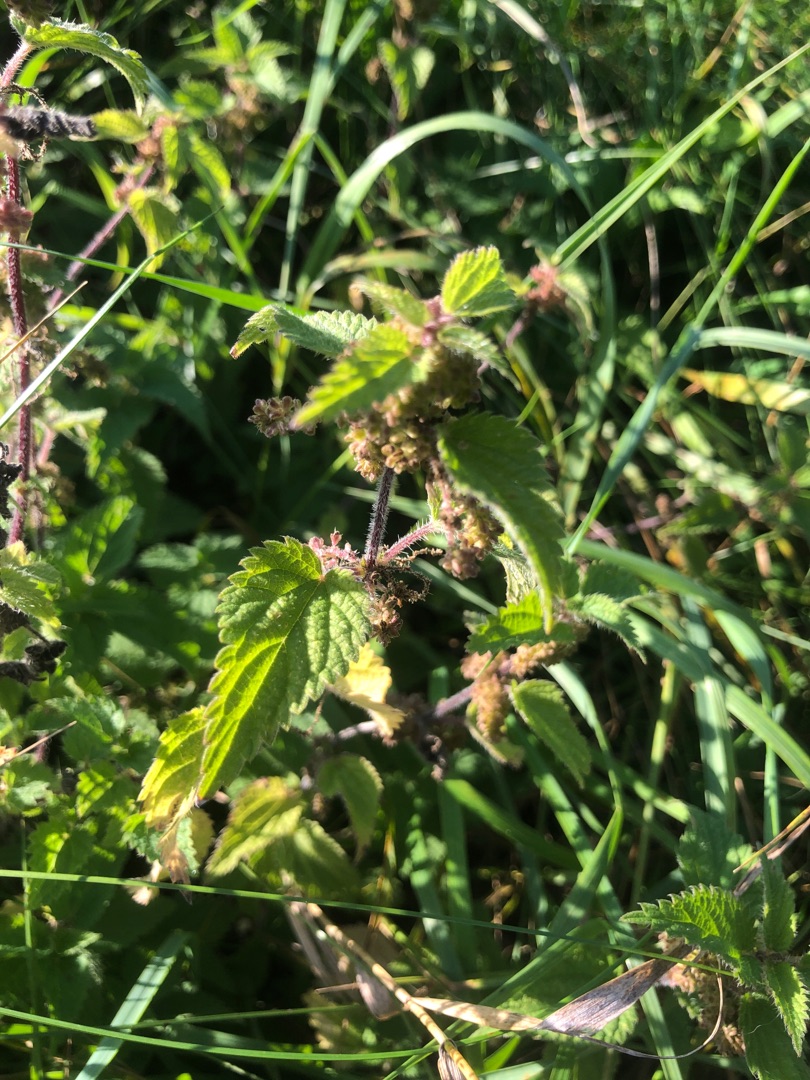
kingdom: Plantae
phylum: Tracheophyta
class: Magnoliopsida
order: Rosales
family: Urticaceae
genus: Urtica
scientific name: Urtica dioica
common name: Stor nælde
